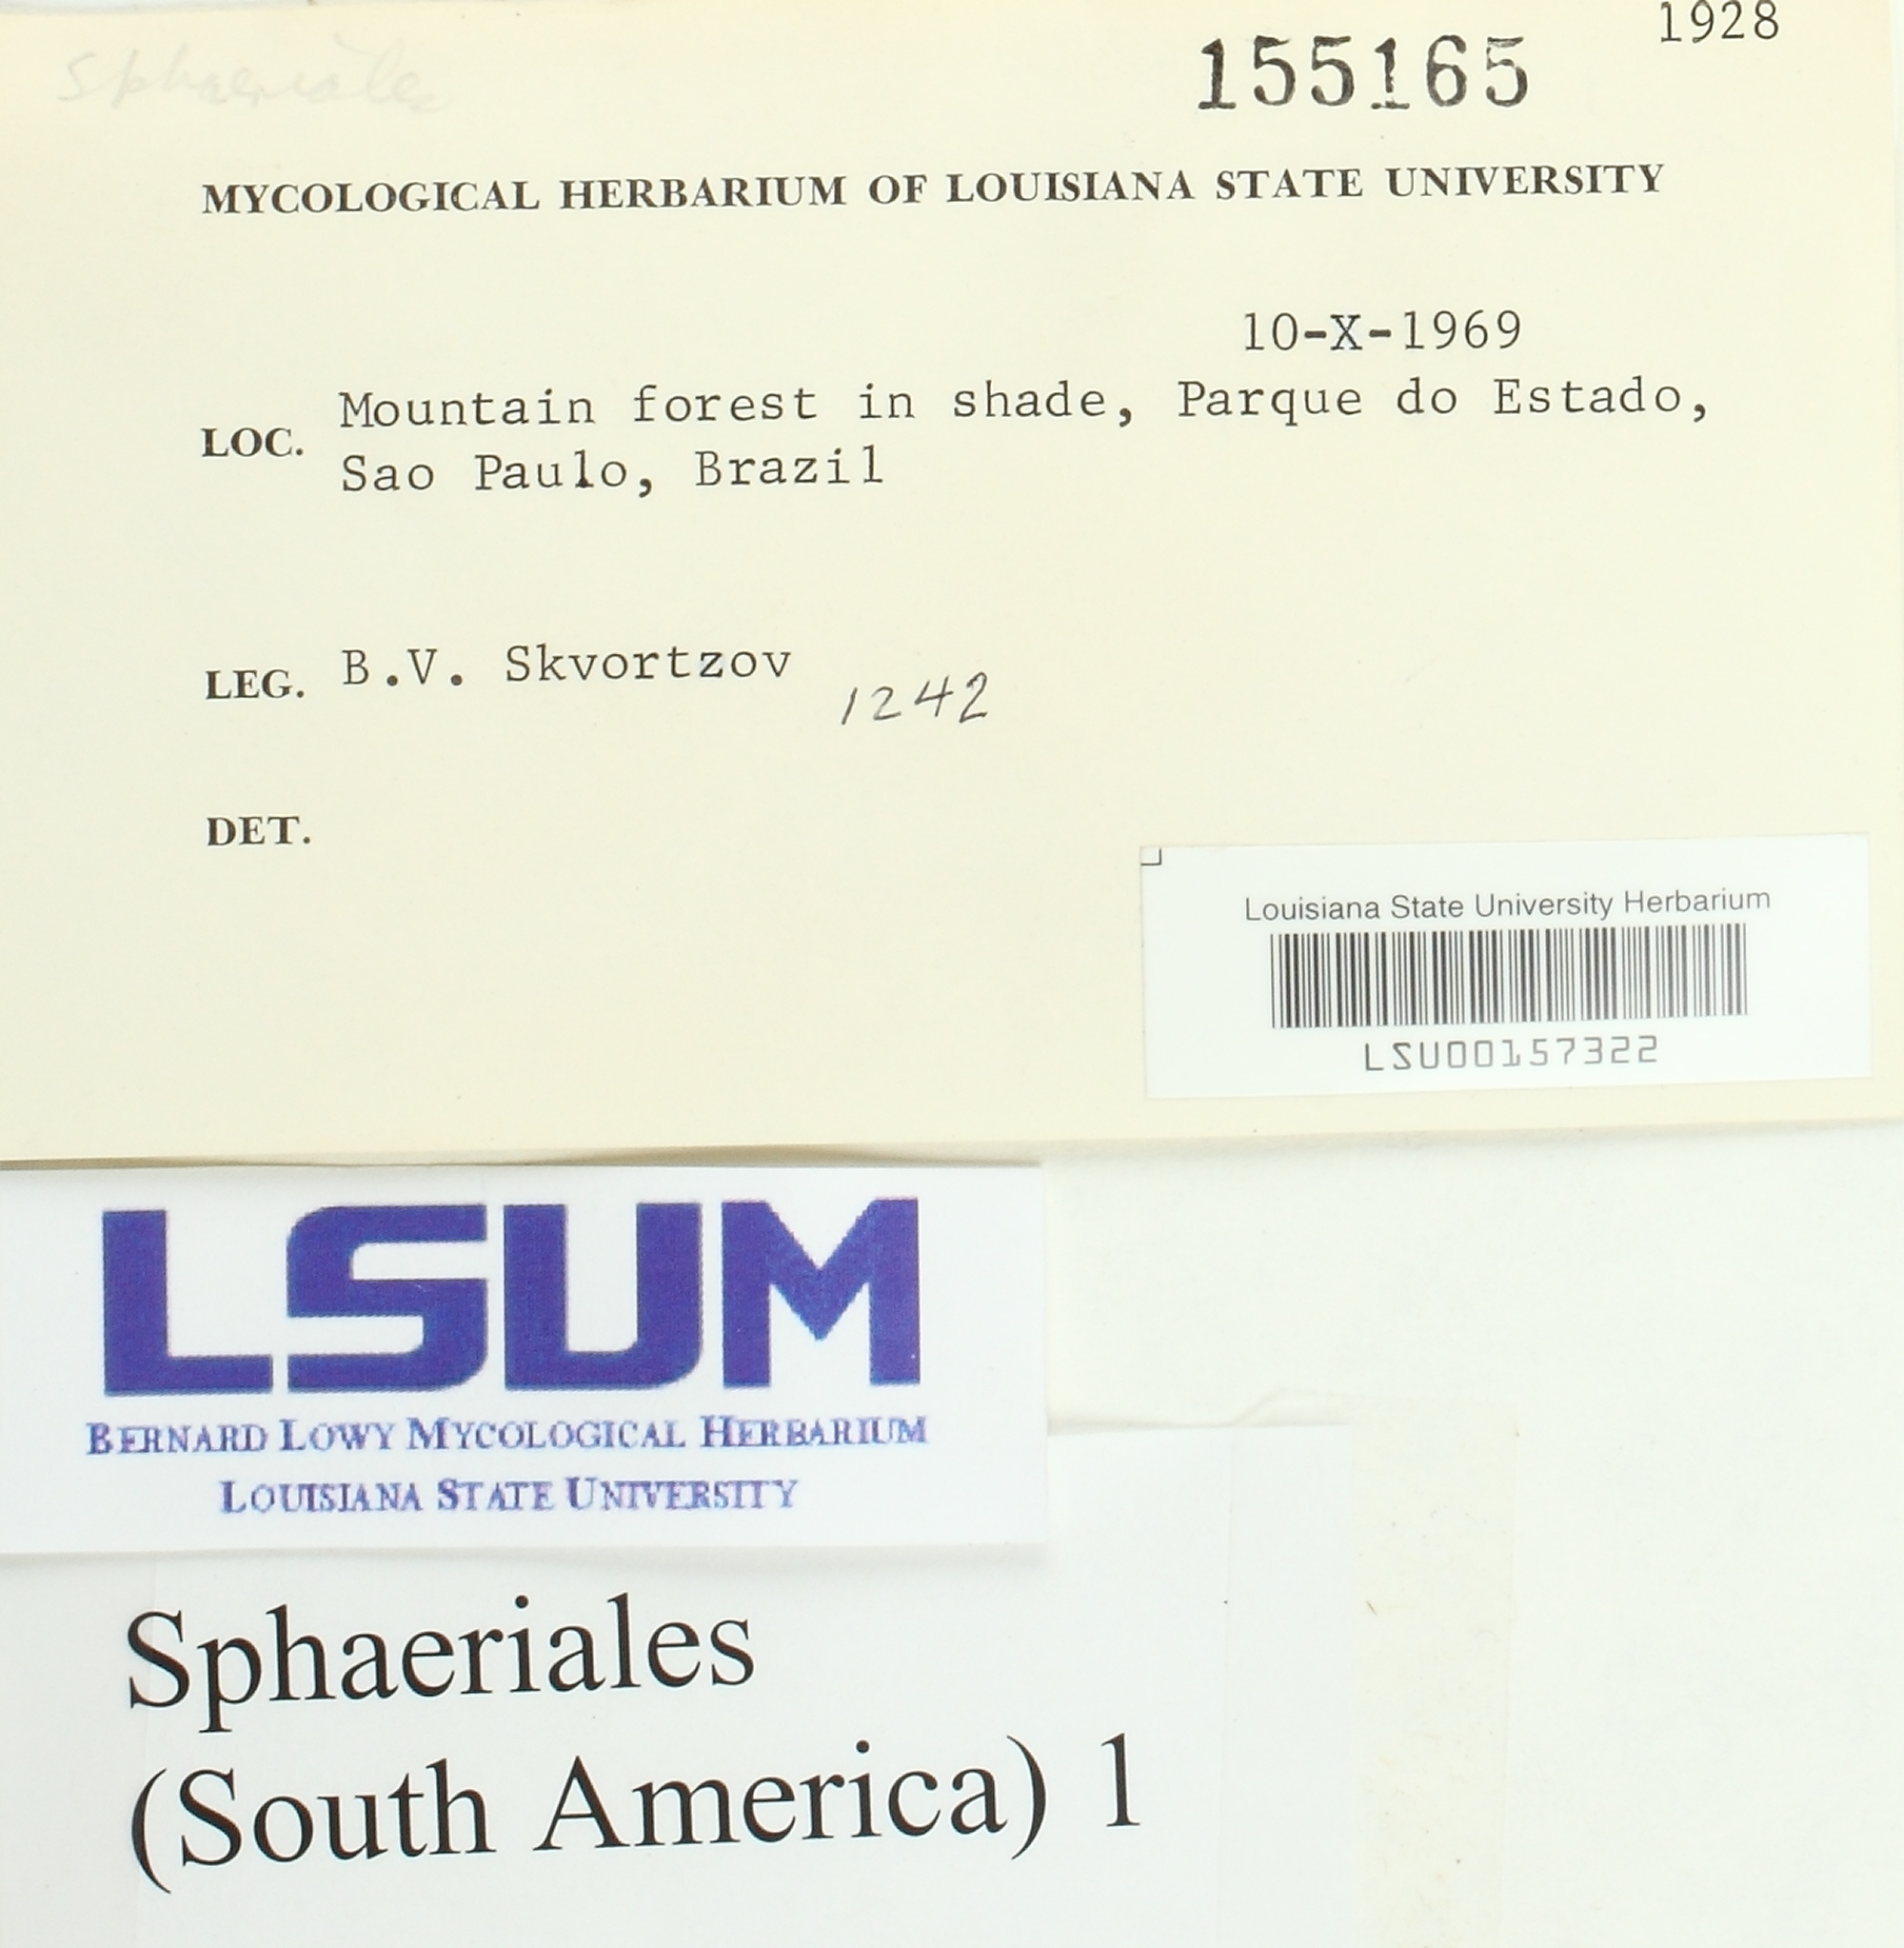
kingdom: Fungi
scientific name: Fungi
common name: Fungi
